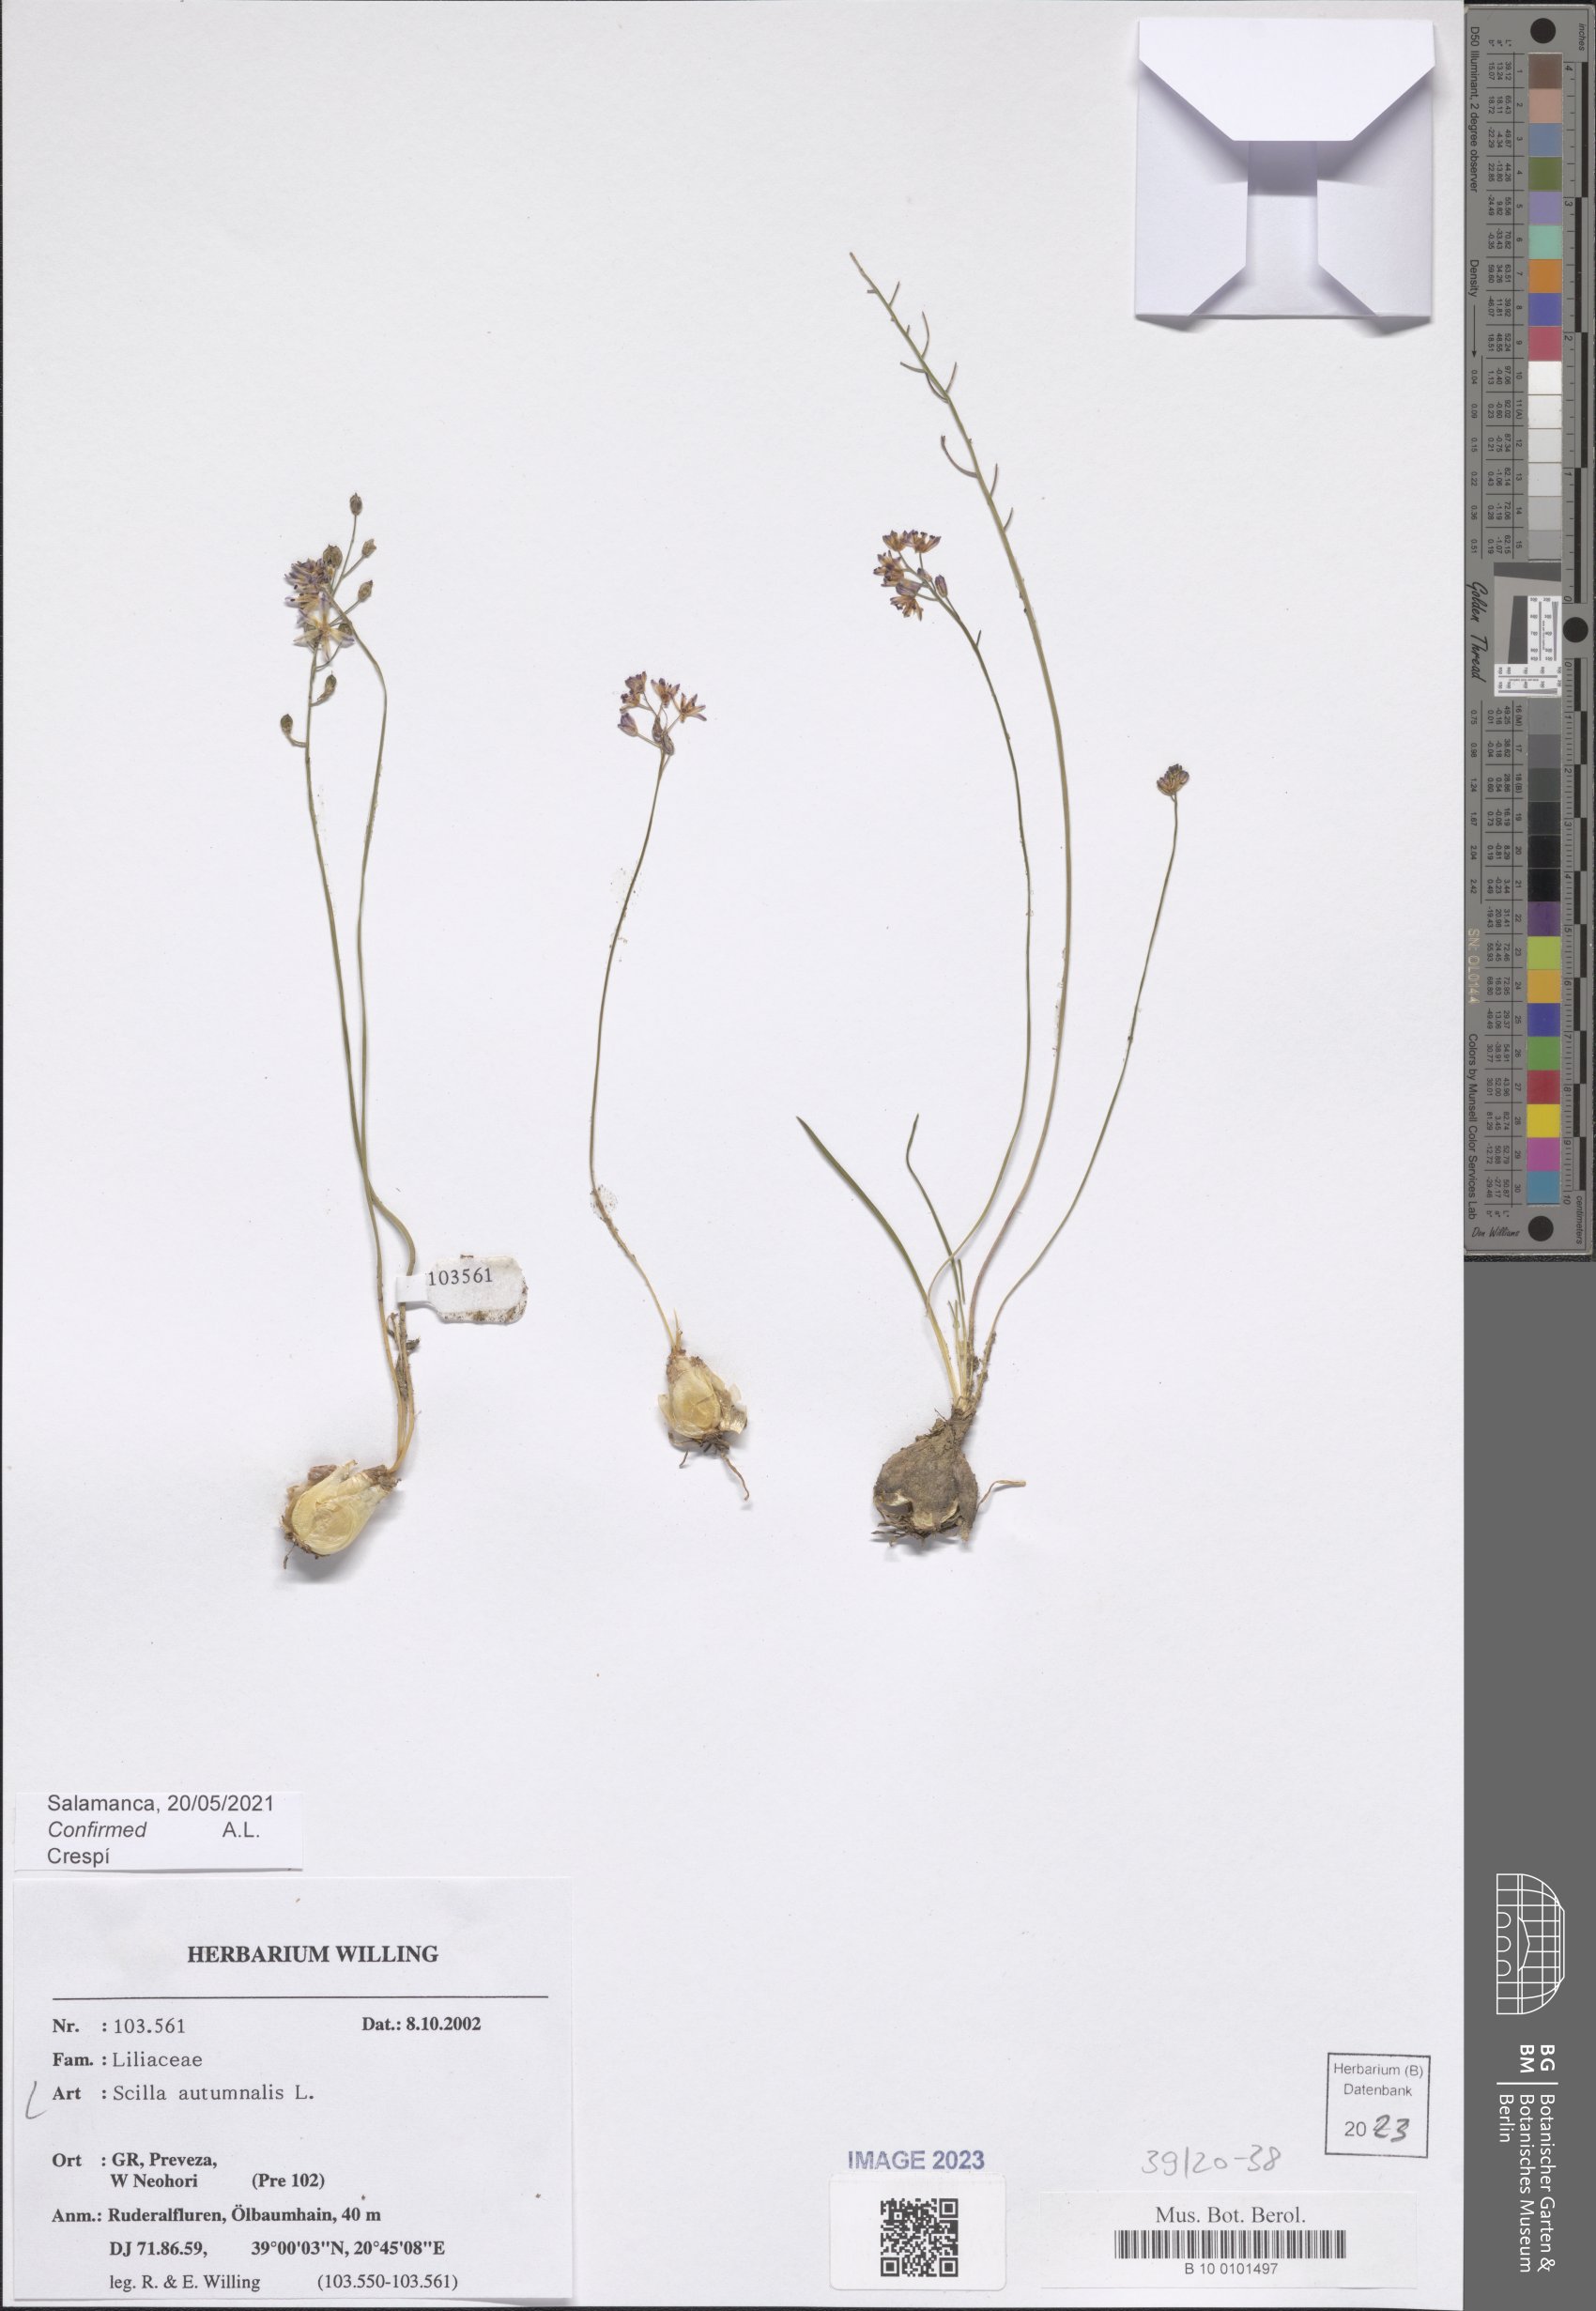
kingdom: Plantae
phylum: Tracheophyta
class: Liliopsida
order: Asparagales
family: Asparagaceae
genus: Prospero
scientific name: Prospero autumnale
